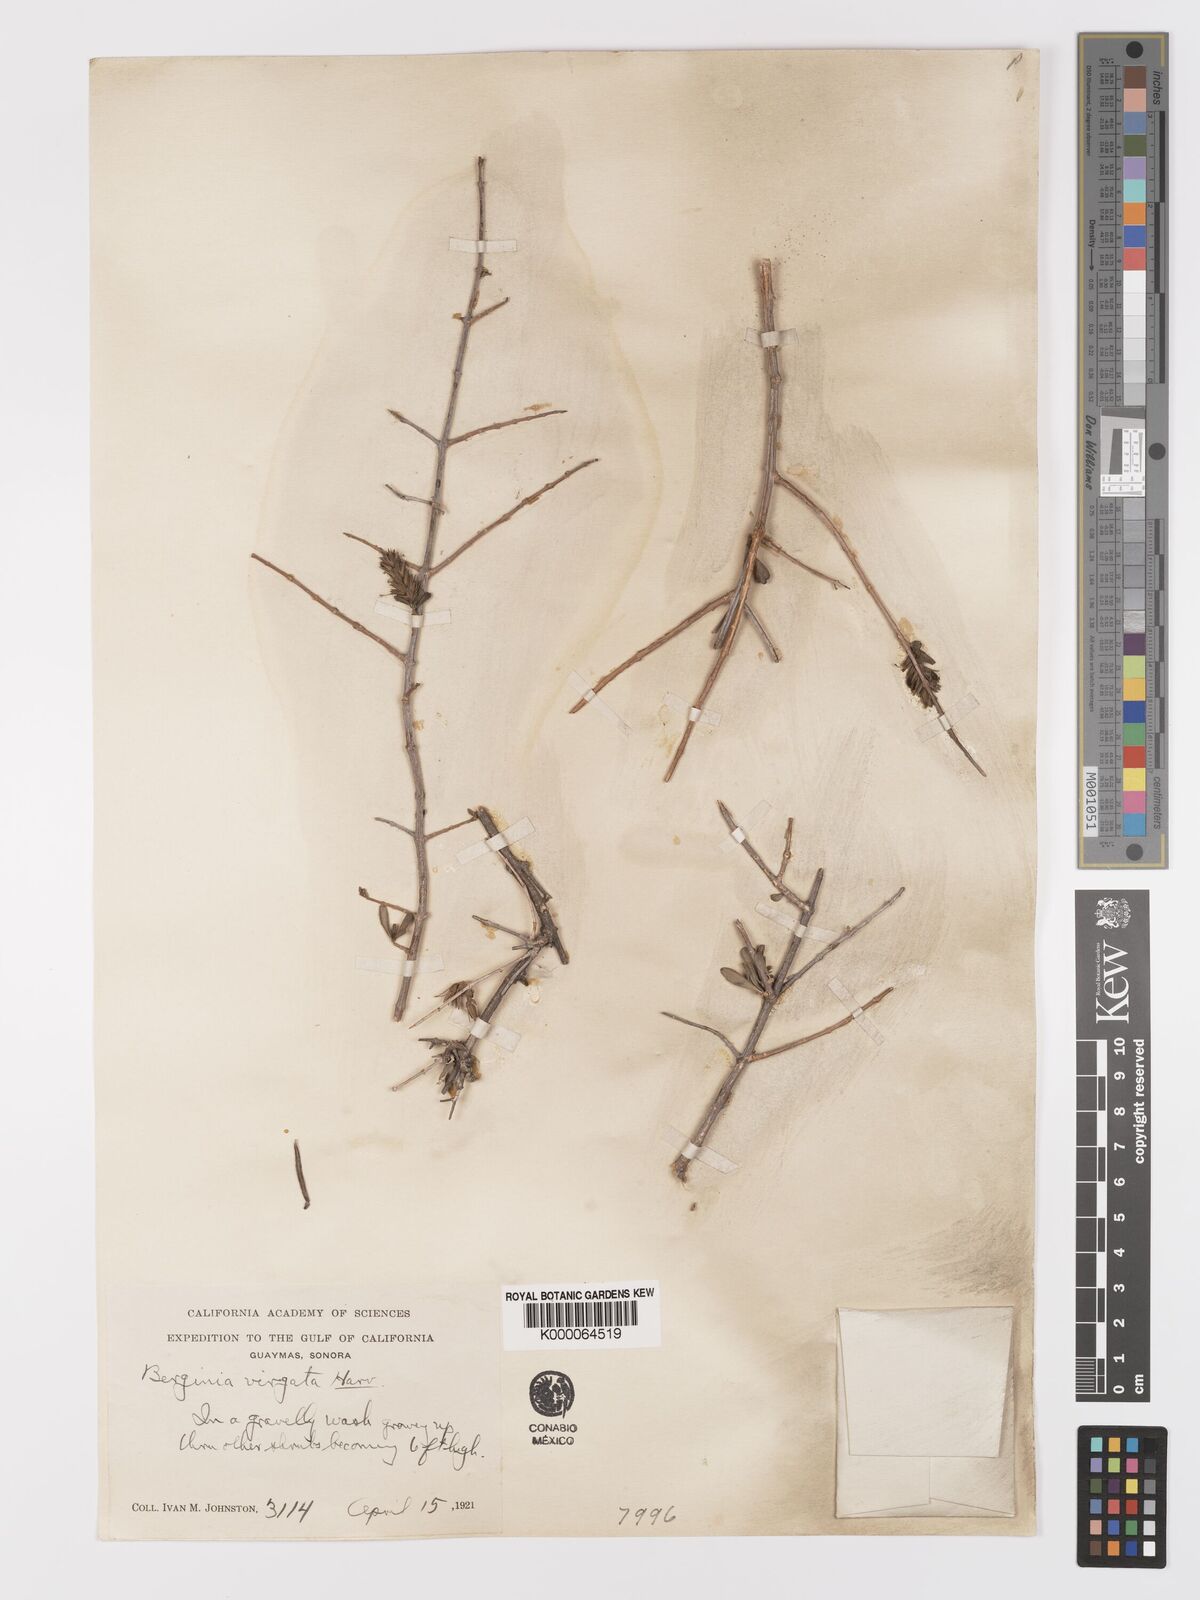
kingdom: Plantae
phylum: Tracheophyta
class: Magnoliopsida
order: Lamiales
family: Acanthaceae
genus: Holographis
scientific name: Holographis virgata
